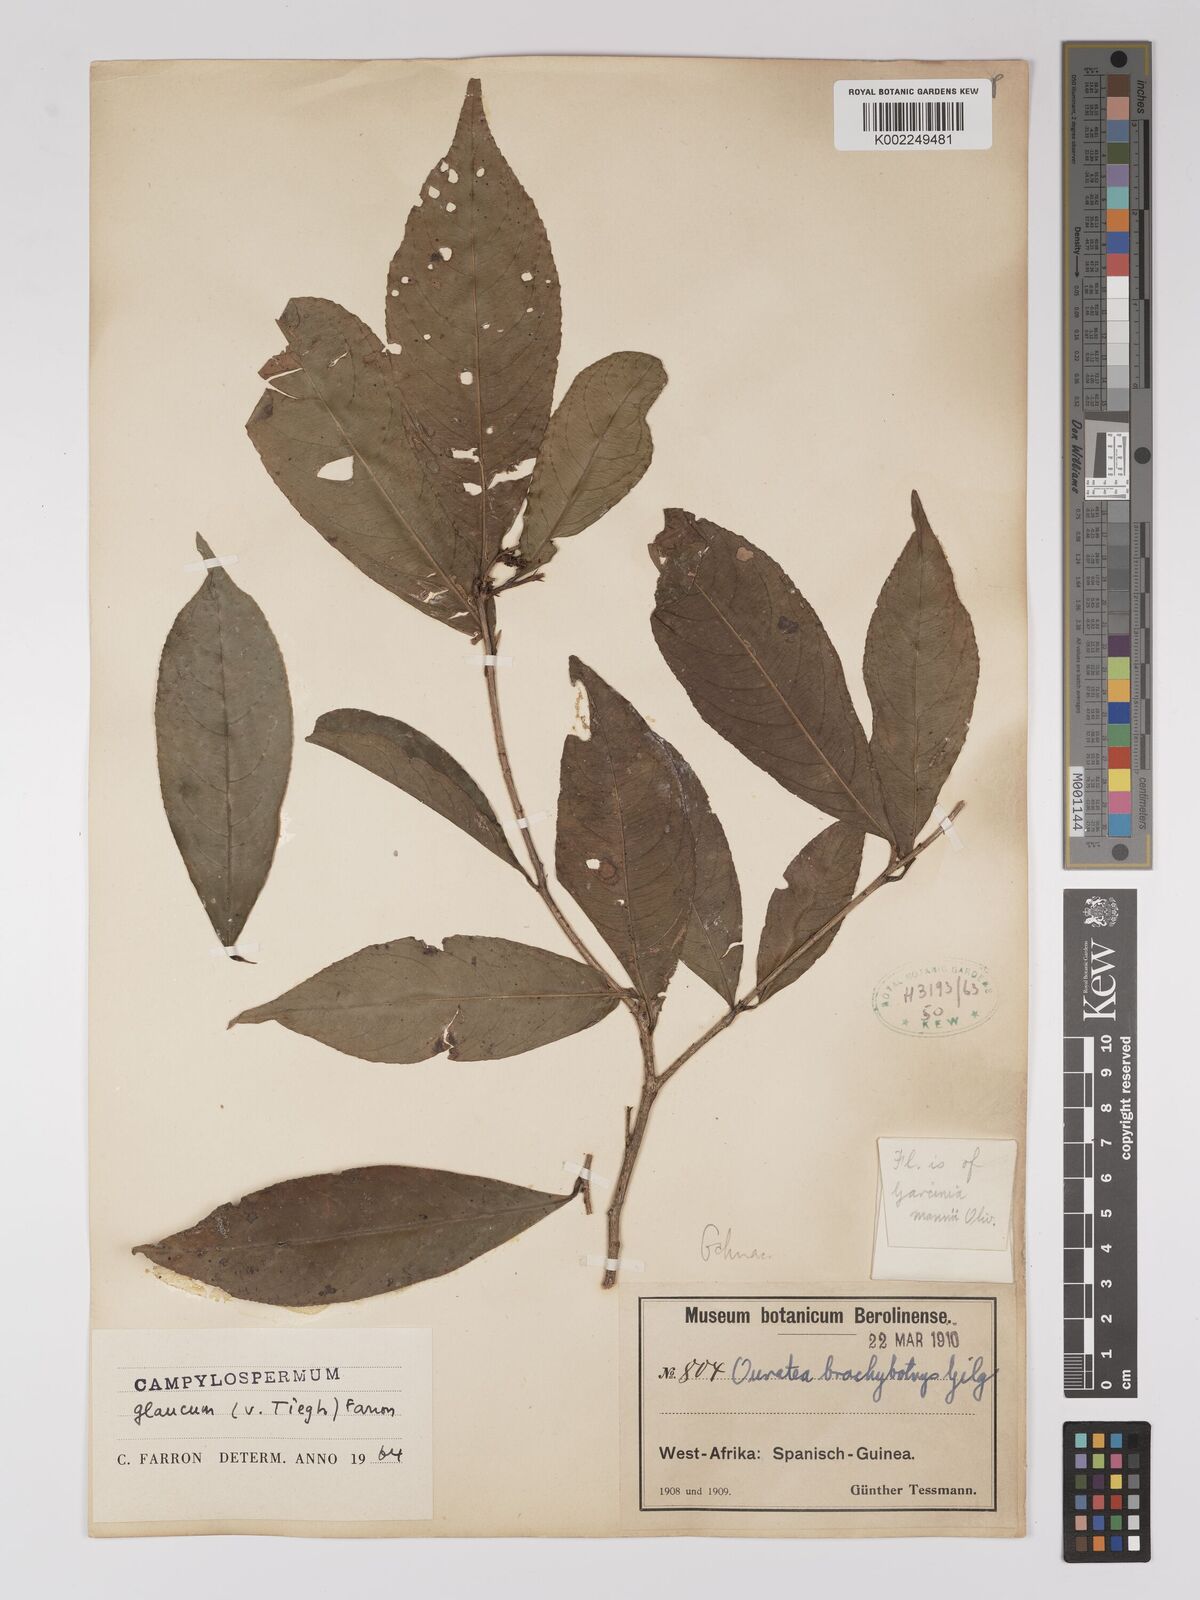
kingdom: Plantae
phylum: Tracheophyta
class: Magnoliopsida
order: Malpighiales
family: Ochnaceae
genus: Campylospermum
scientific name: Campylospermum glaucum
